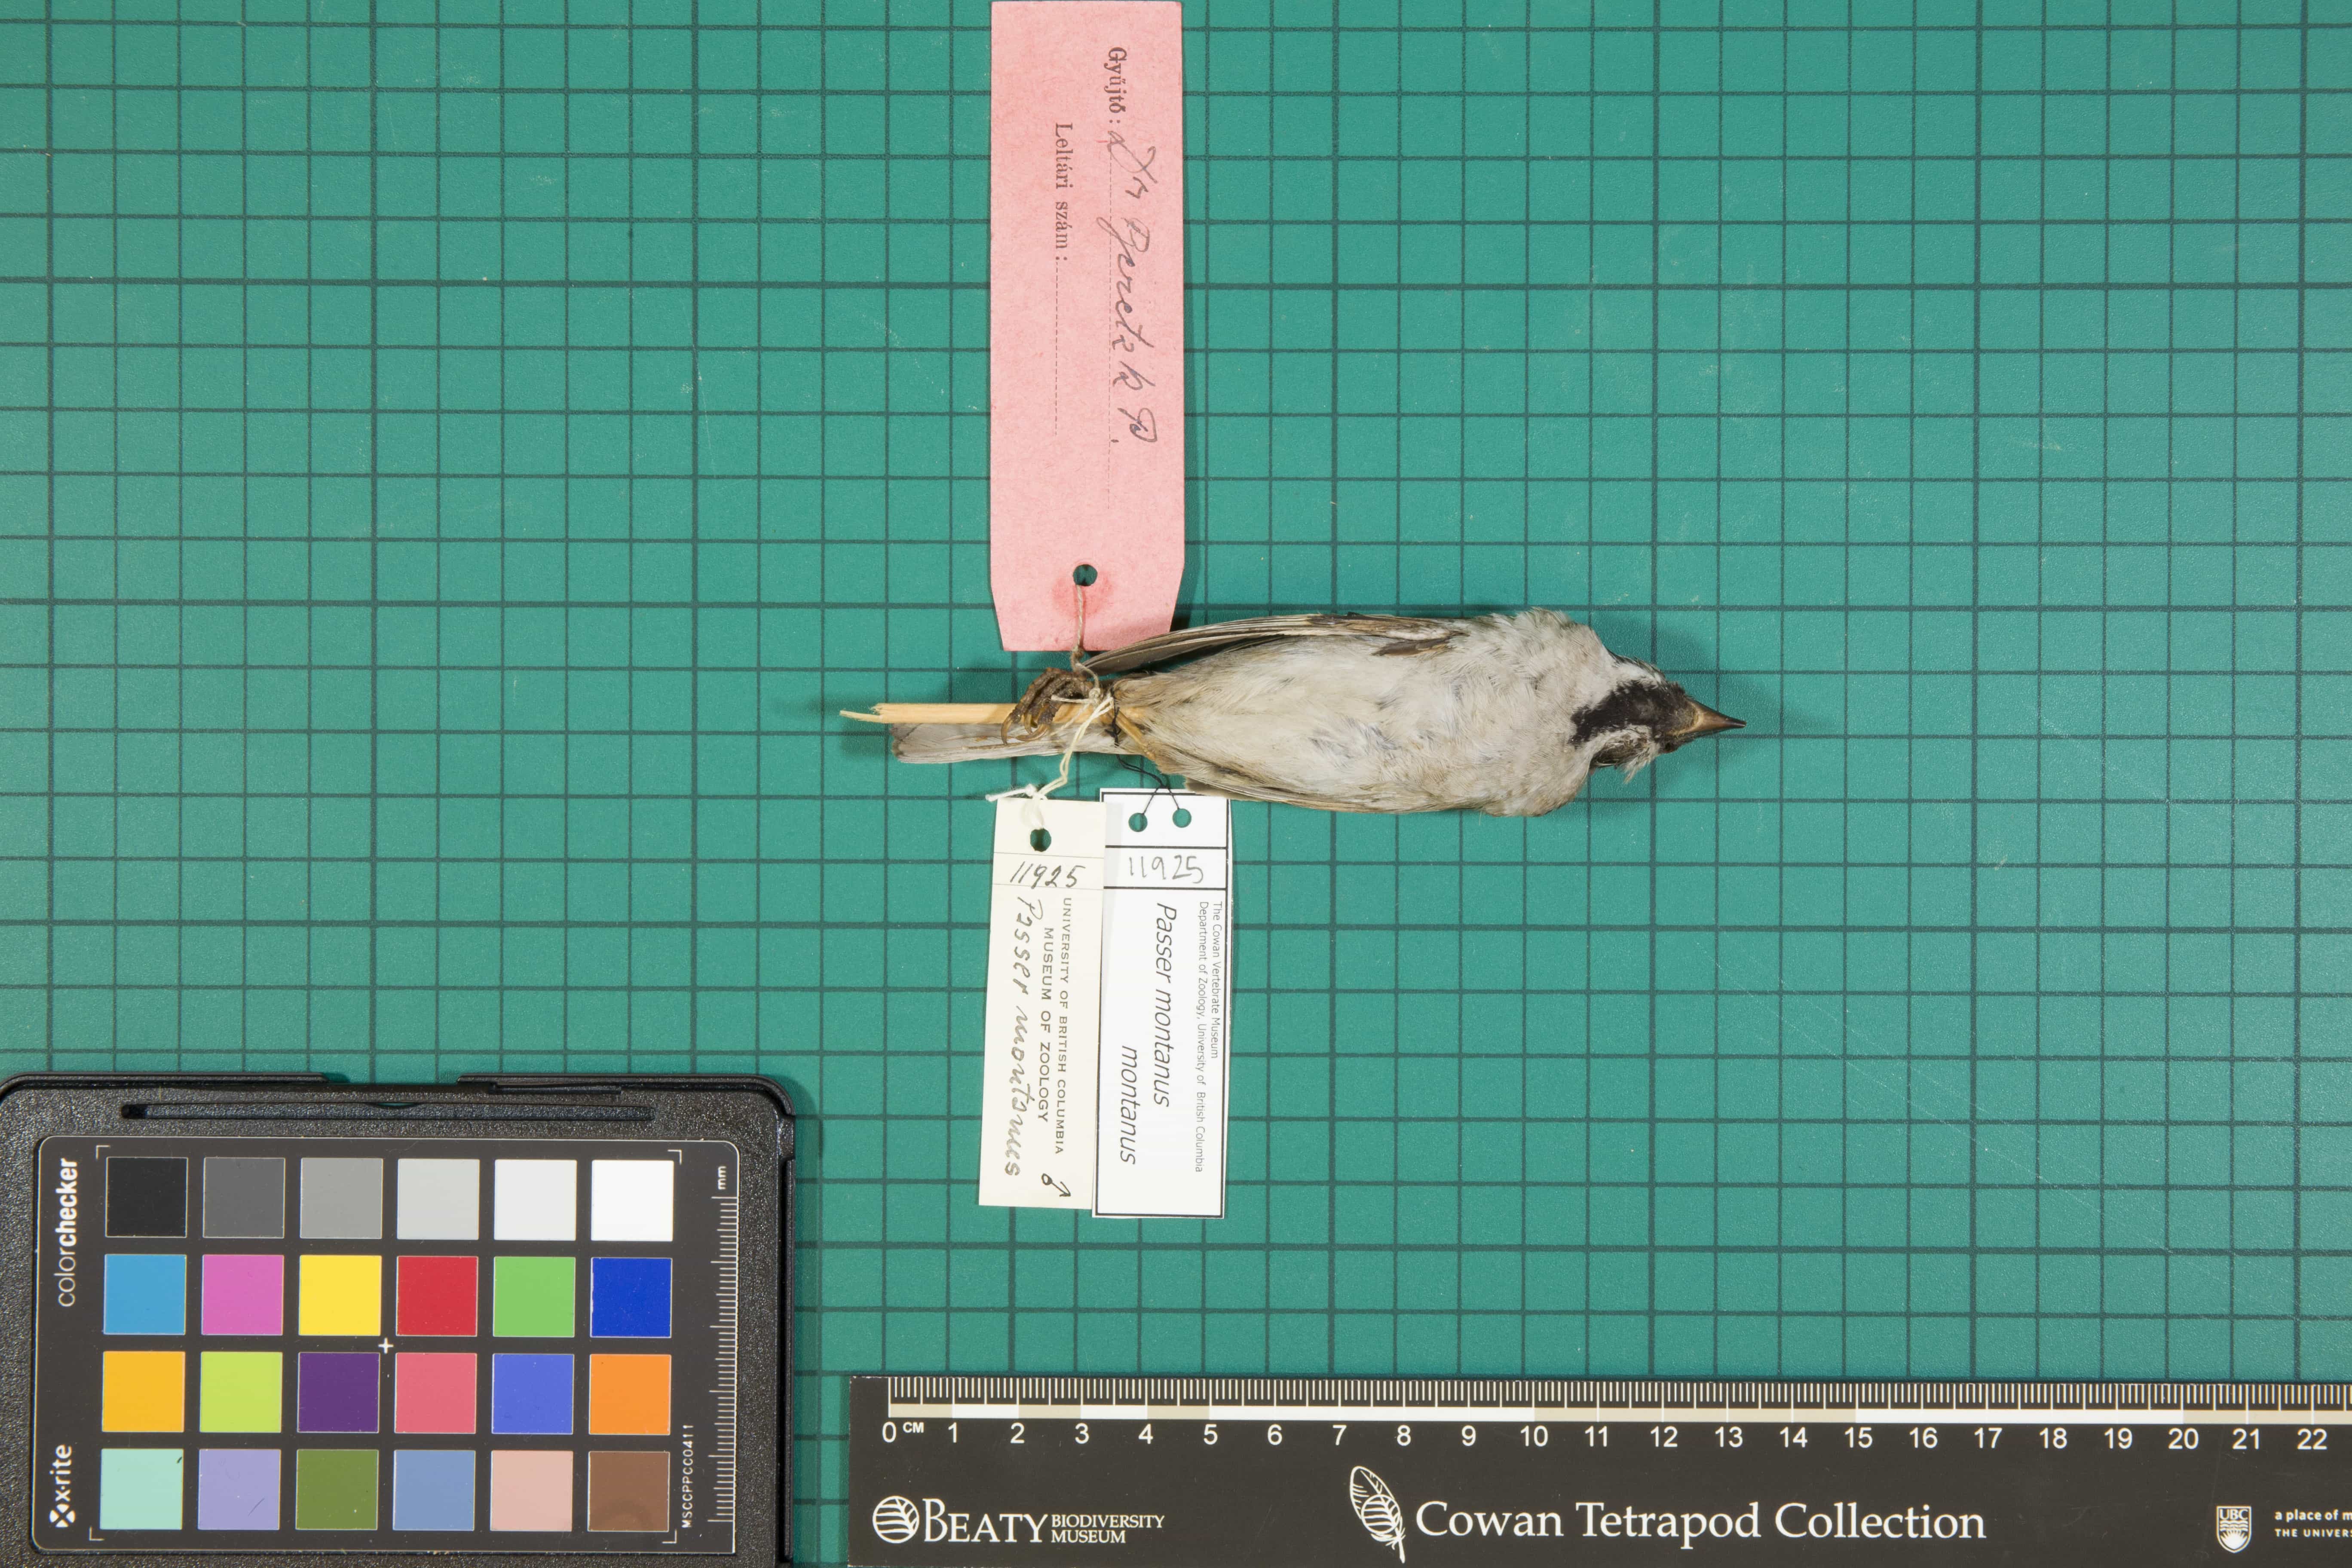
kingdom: Animalia
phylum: Chordata
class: Aves
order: Passeriformes
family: Passeridae
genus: Passer
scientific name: Passer montanus
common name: Eurasian Tree Sparrow
